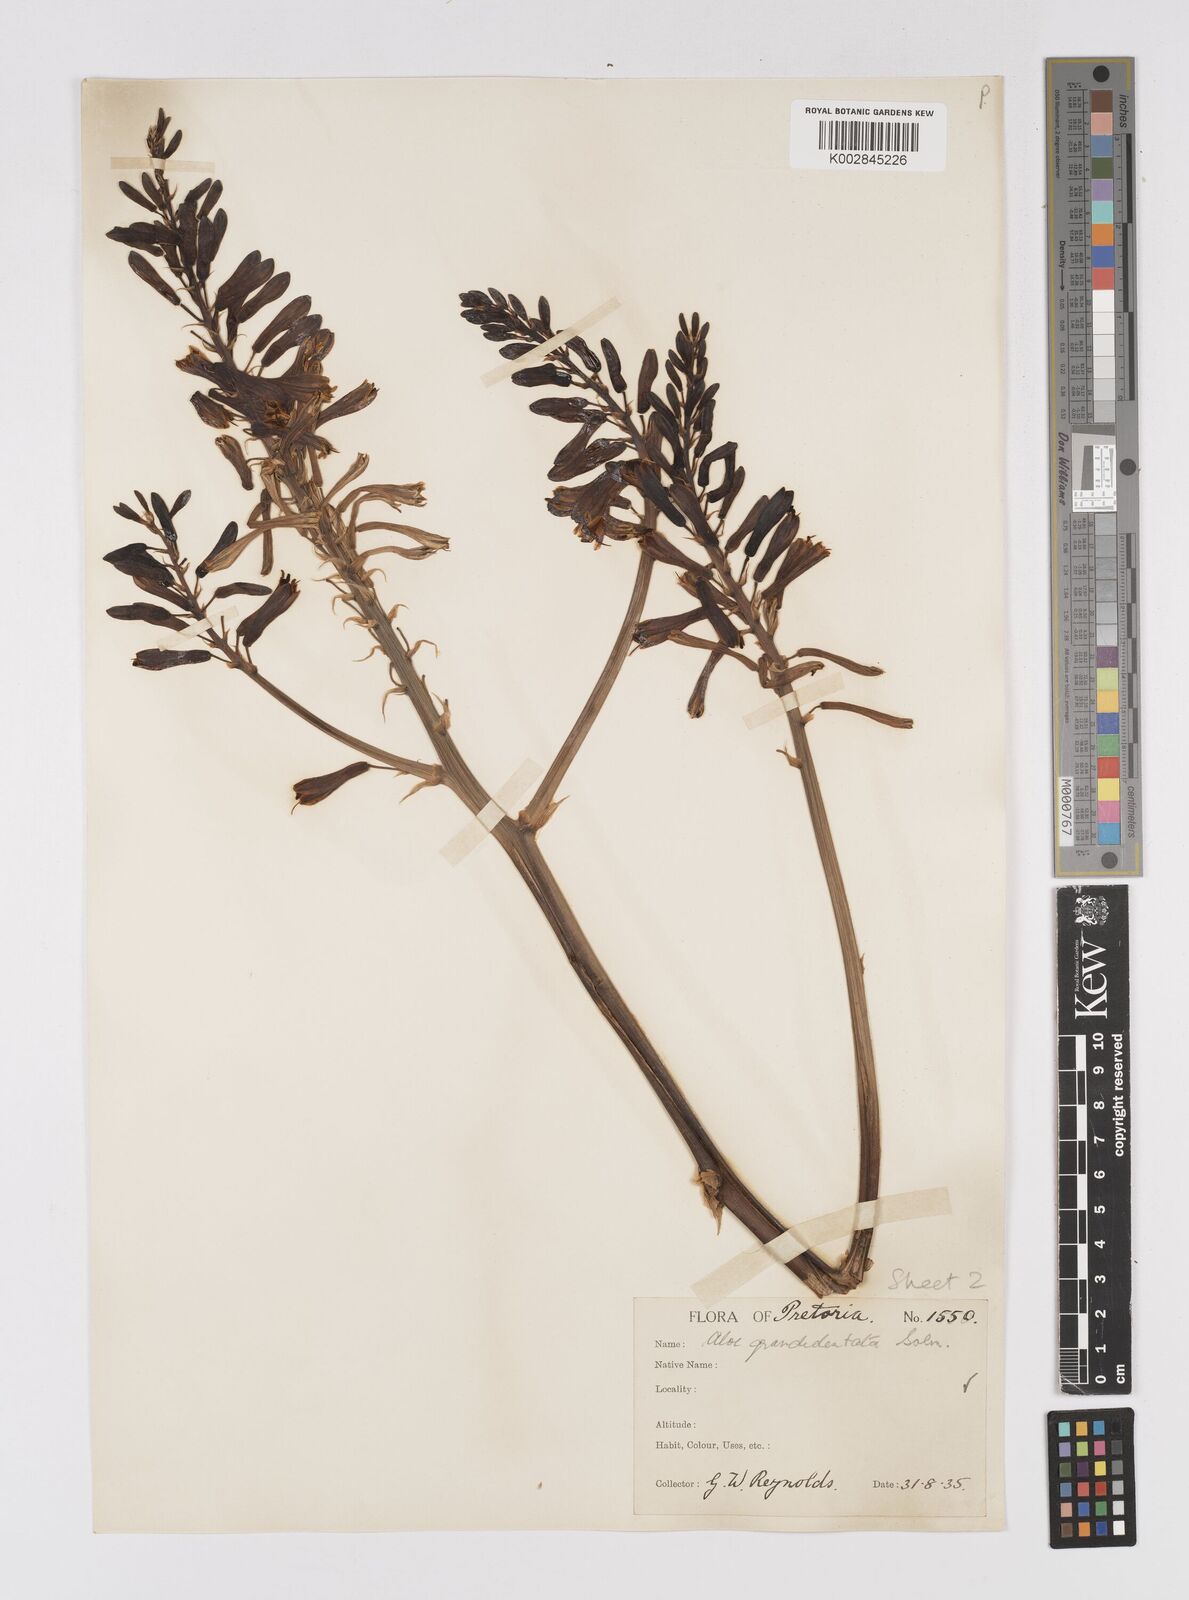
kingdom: Plantae
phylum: Tracheophyta
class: Liliopsida
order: Asparagales
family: Asphodelaceae
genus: Aloe
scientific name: Aloe grandidentata
